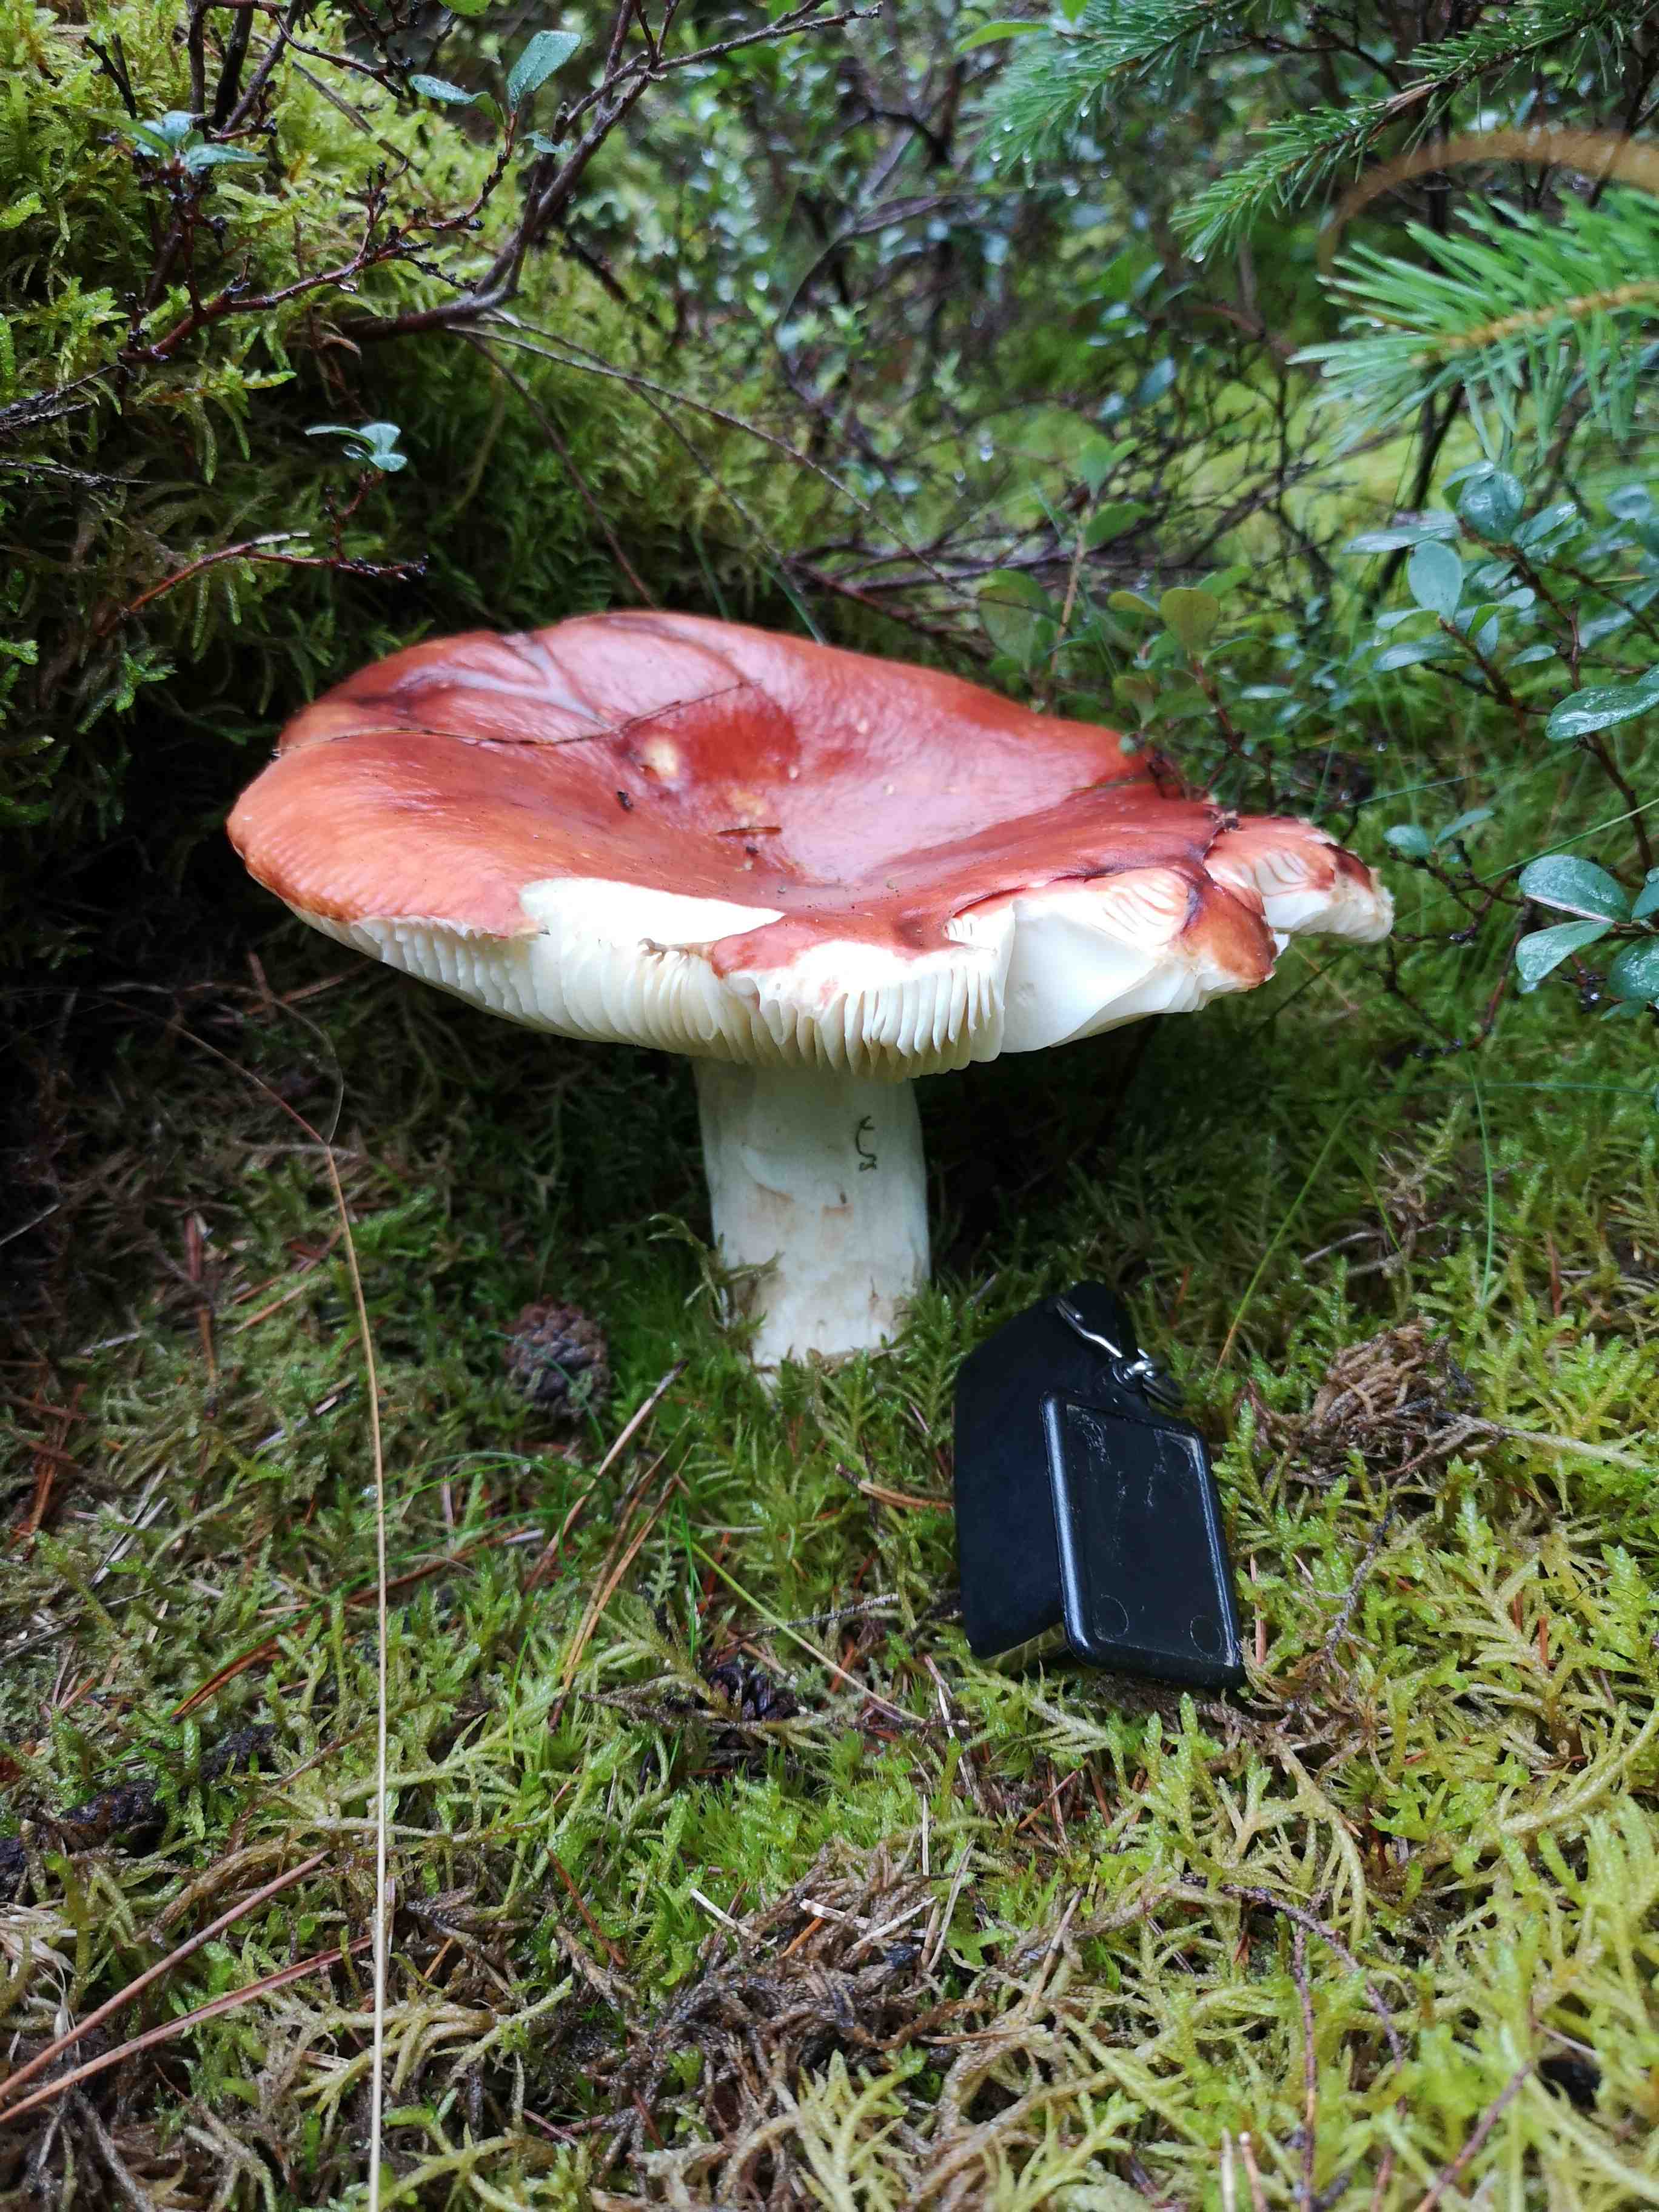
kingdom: Fungi
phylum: Basidiomycota
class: Agaricomycetes
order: Russulales
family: Russulaceae
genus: Russula
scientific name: Russula paludosa
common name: prægtig skørhat
